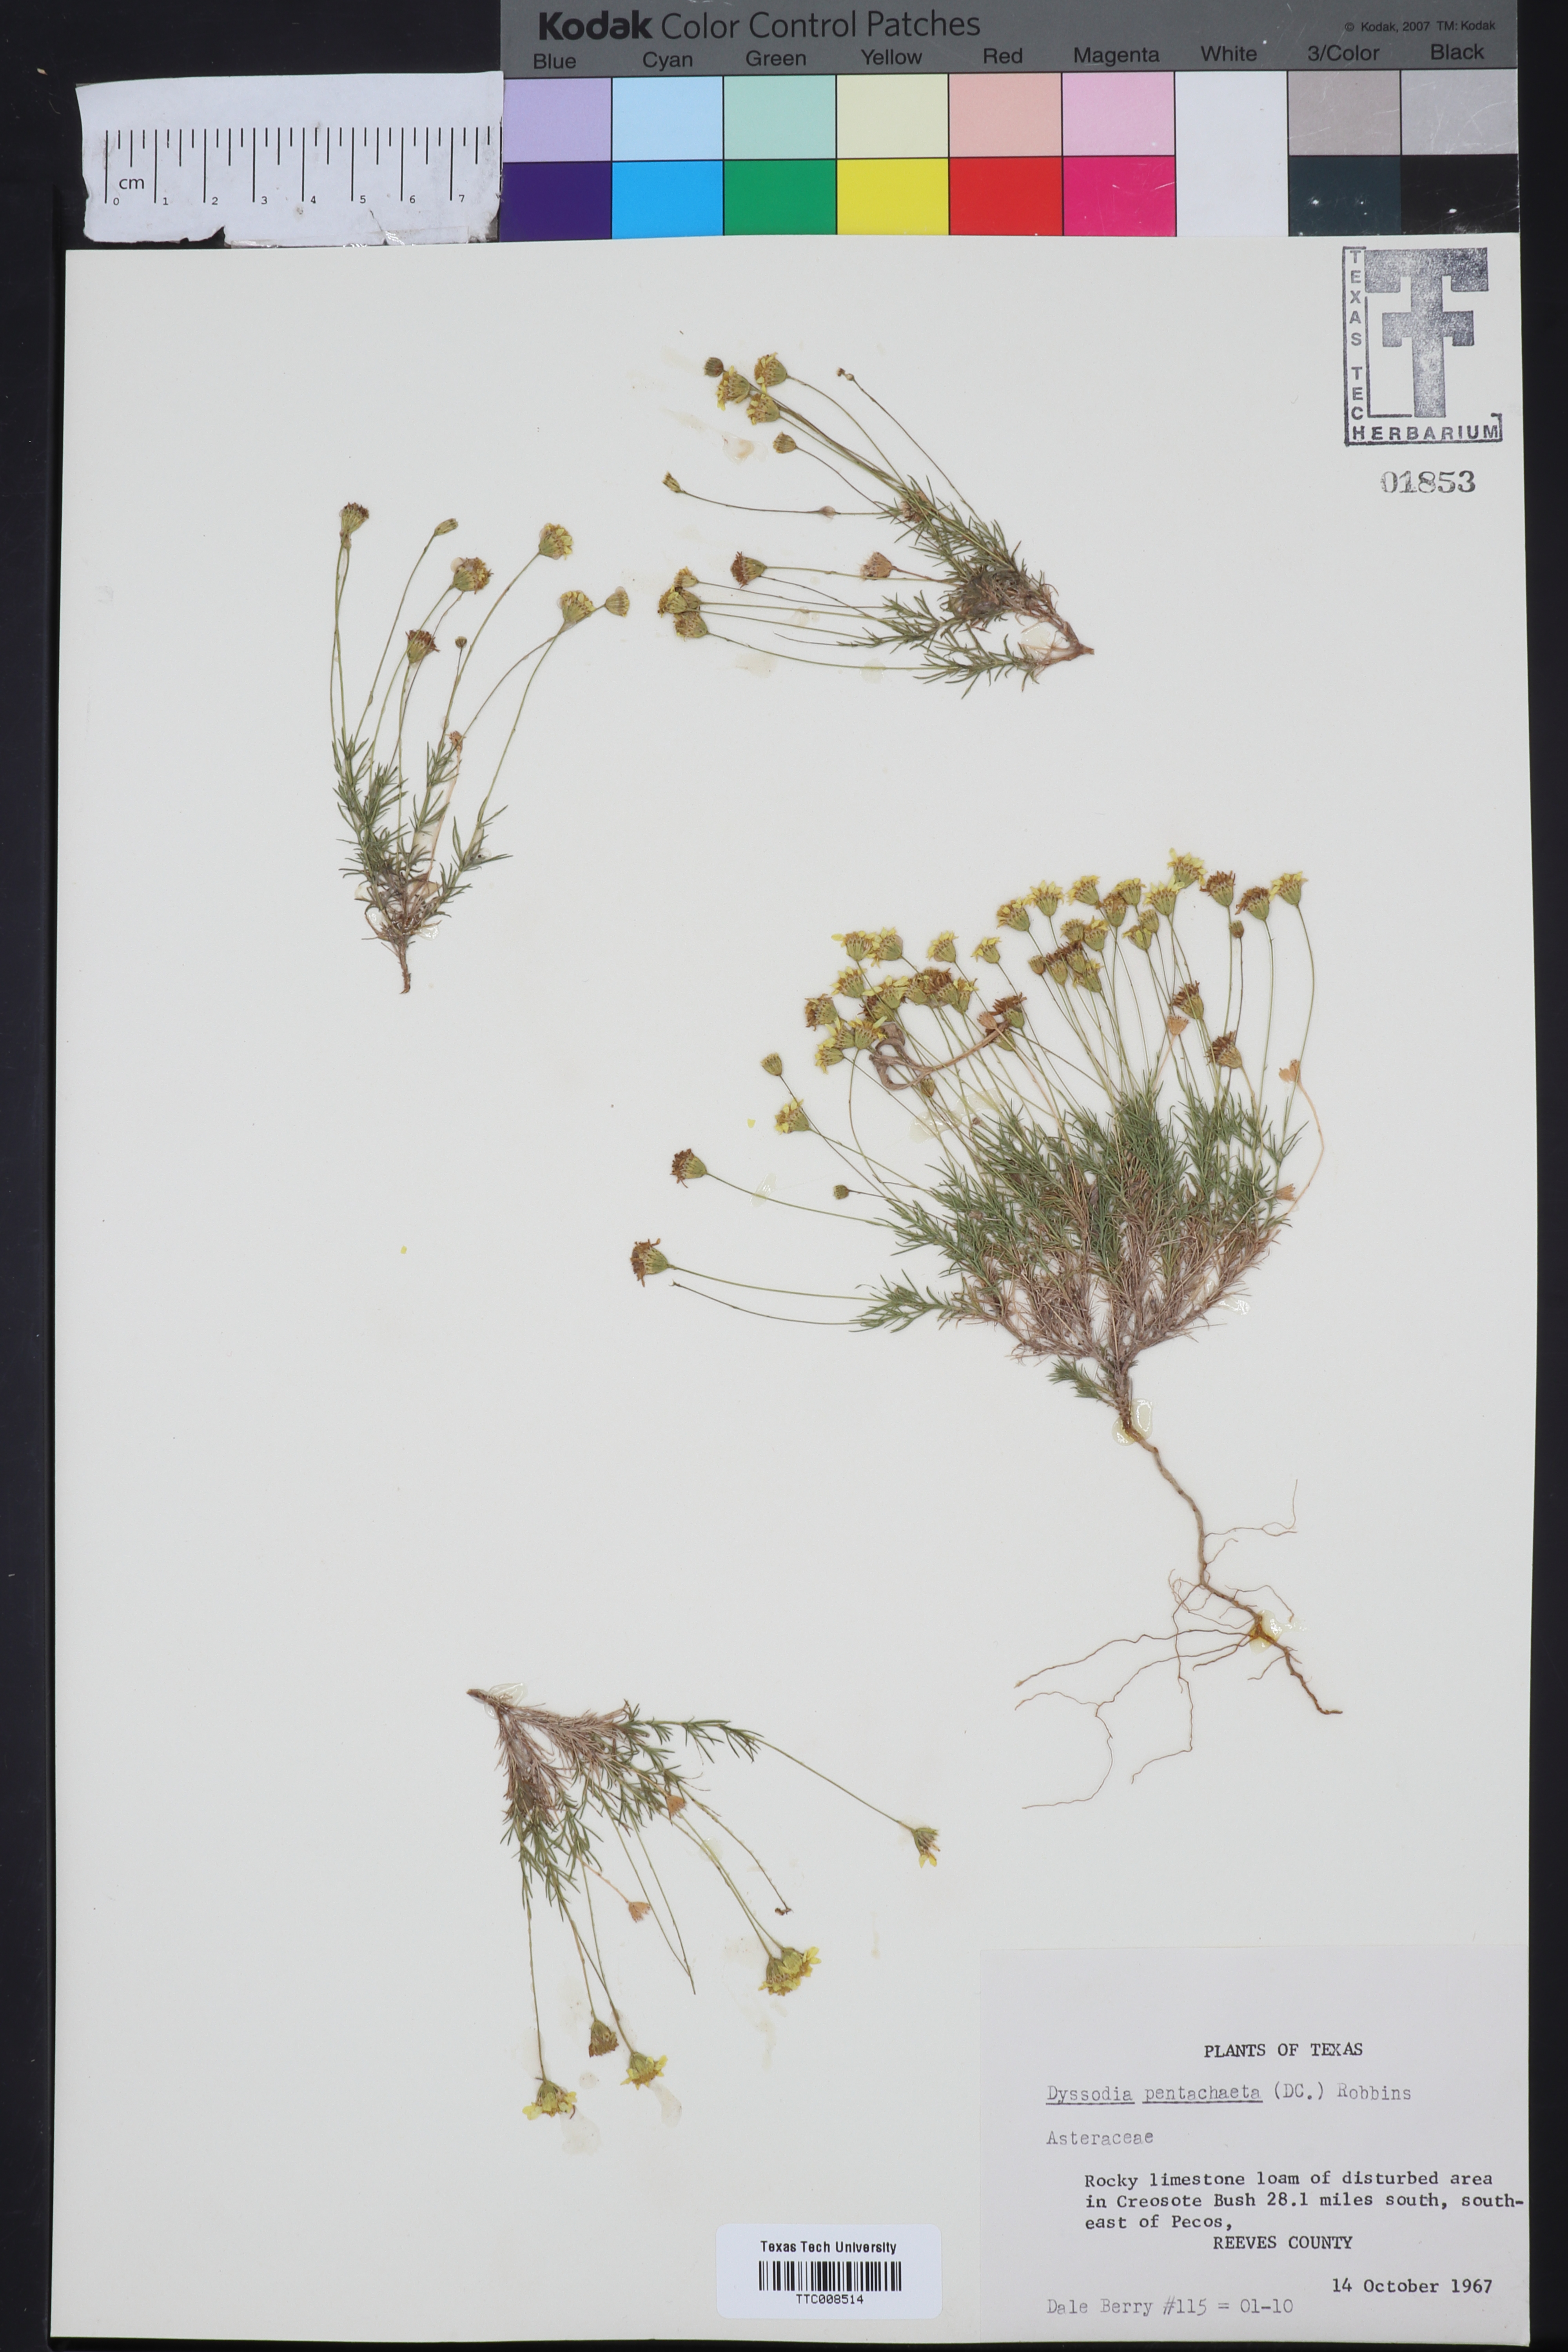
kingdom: Plantae
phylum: Tracheophyta
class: Magnoliopsida
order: Asterales
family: Asteraceae
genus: Thymophylla
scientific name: Thymophylla pentachaeta
